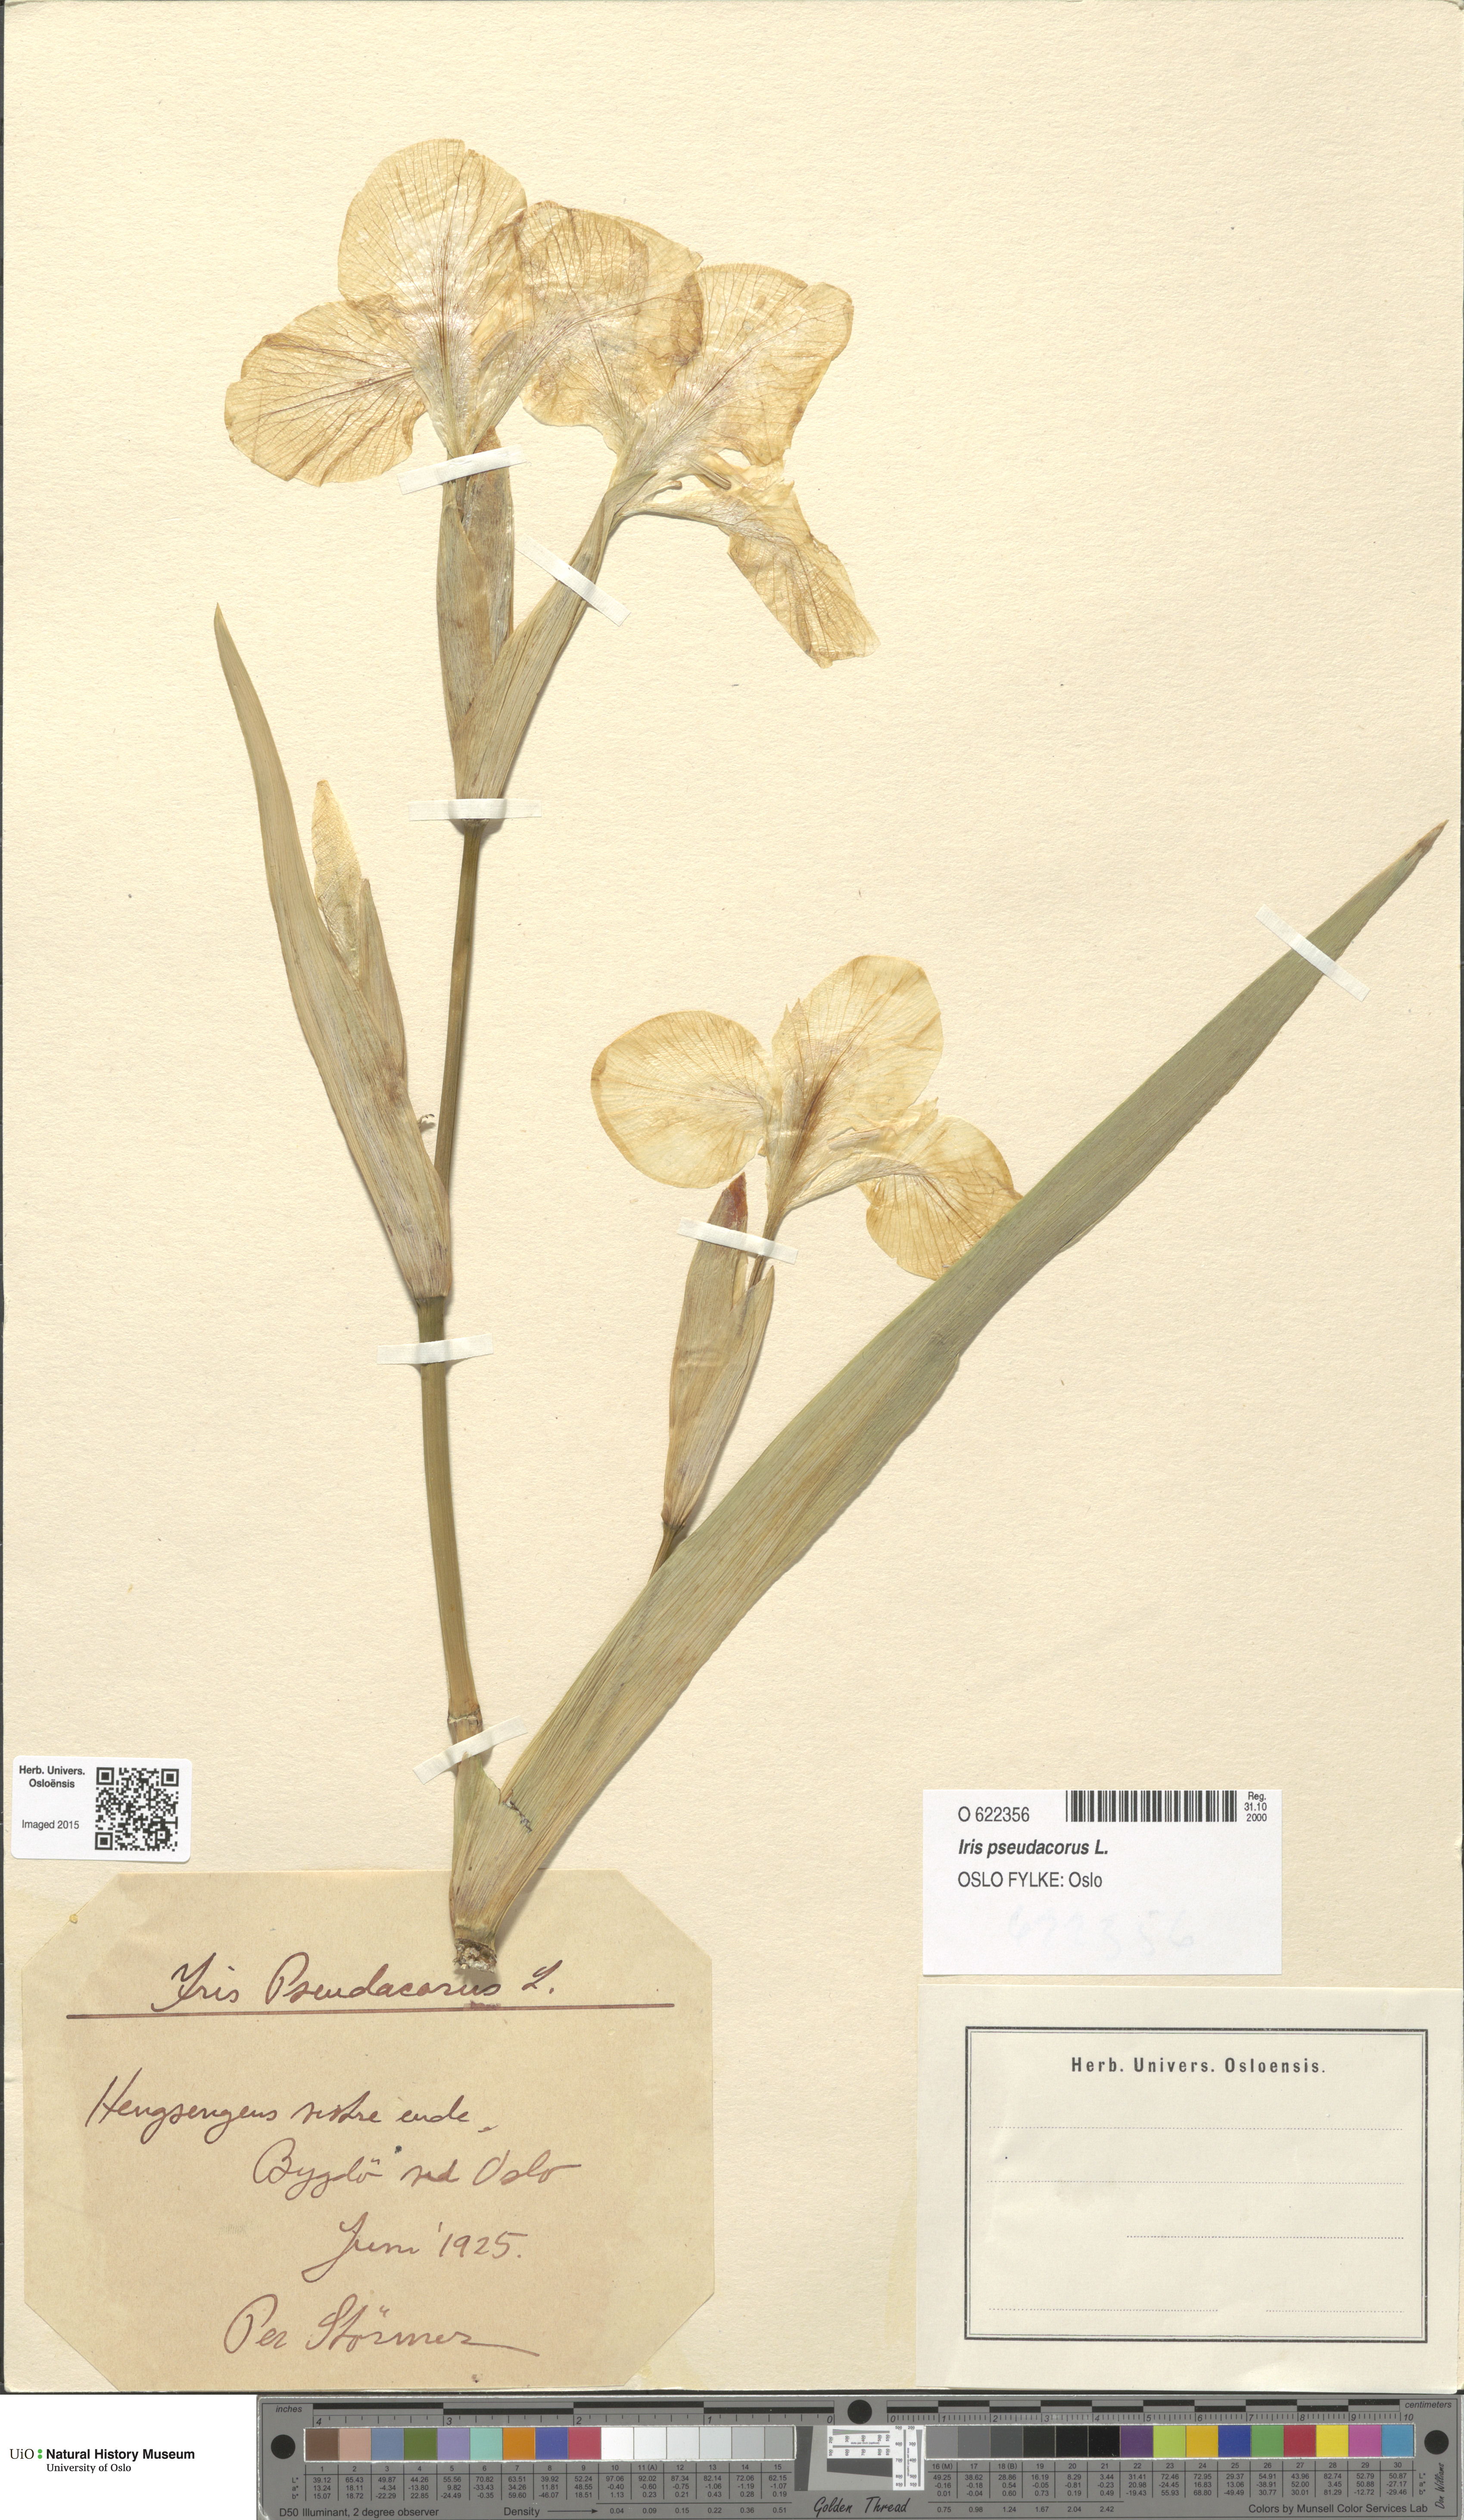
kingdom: Plantae
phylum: Tracheophyta
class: Liliopsida
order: Asparagales
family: Iridaceae
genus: Iris
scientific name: Iris pseudacorus
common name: Yellow flag
